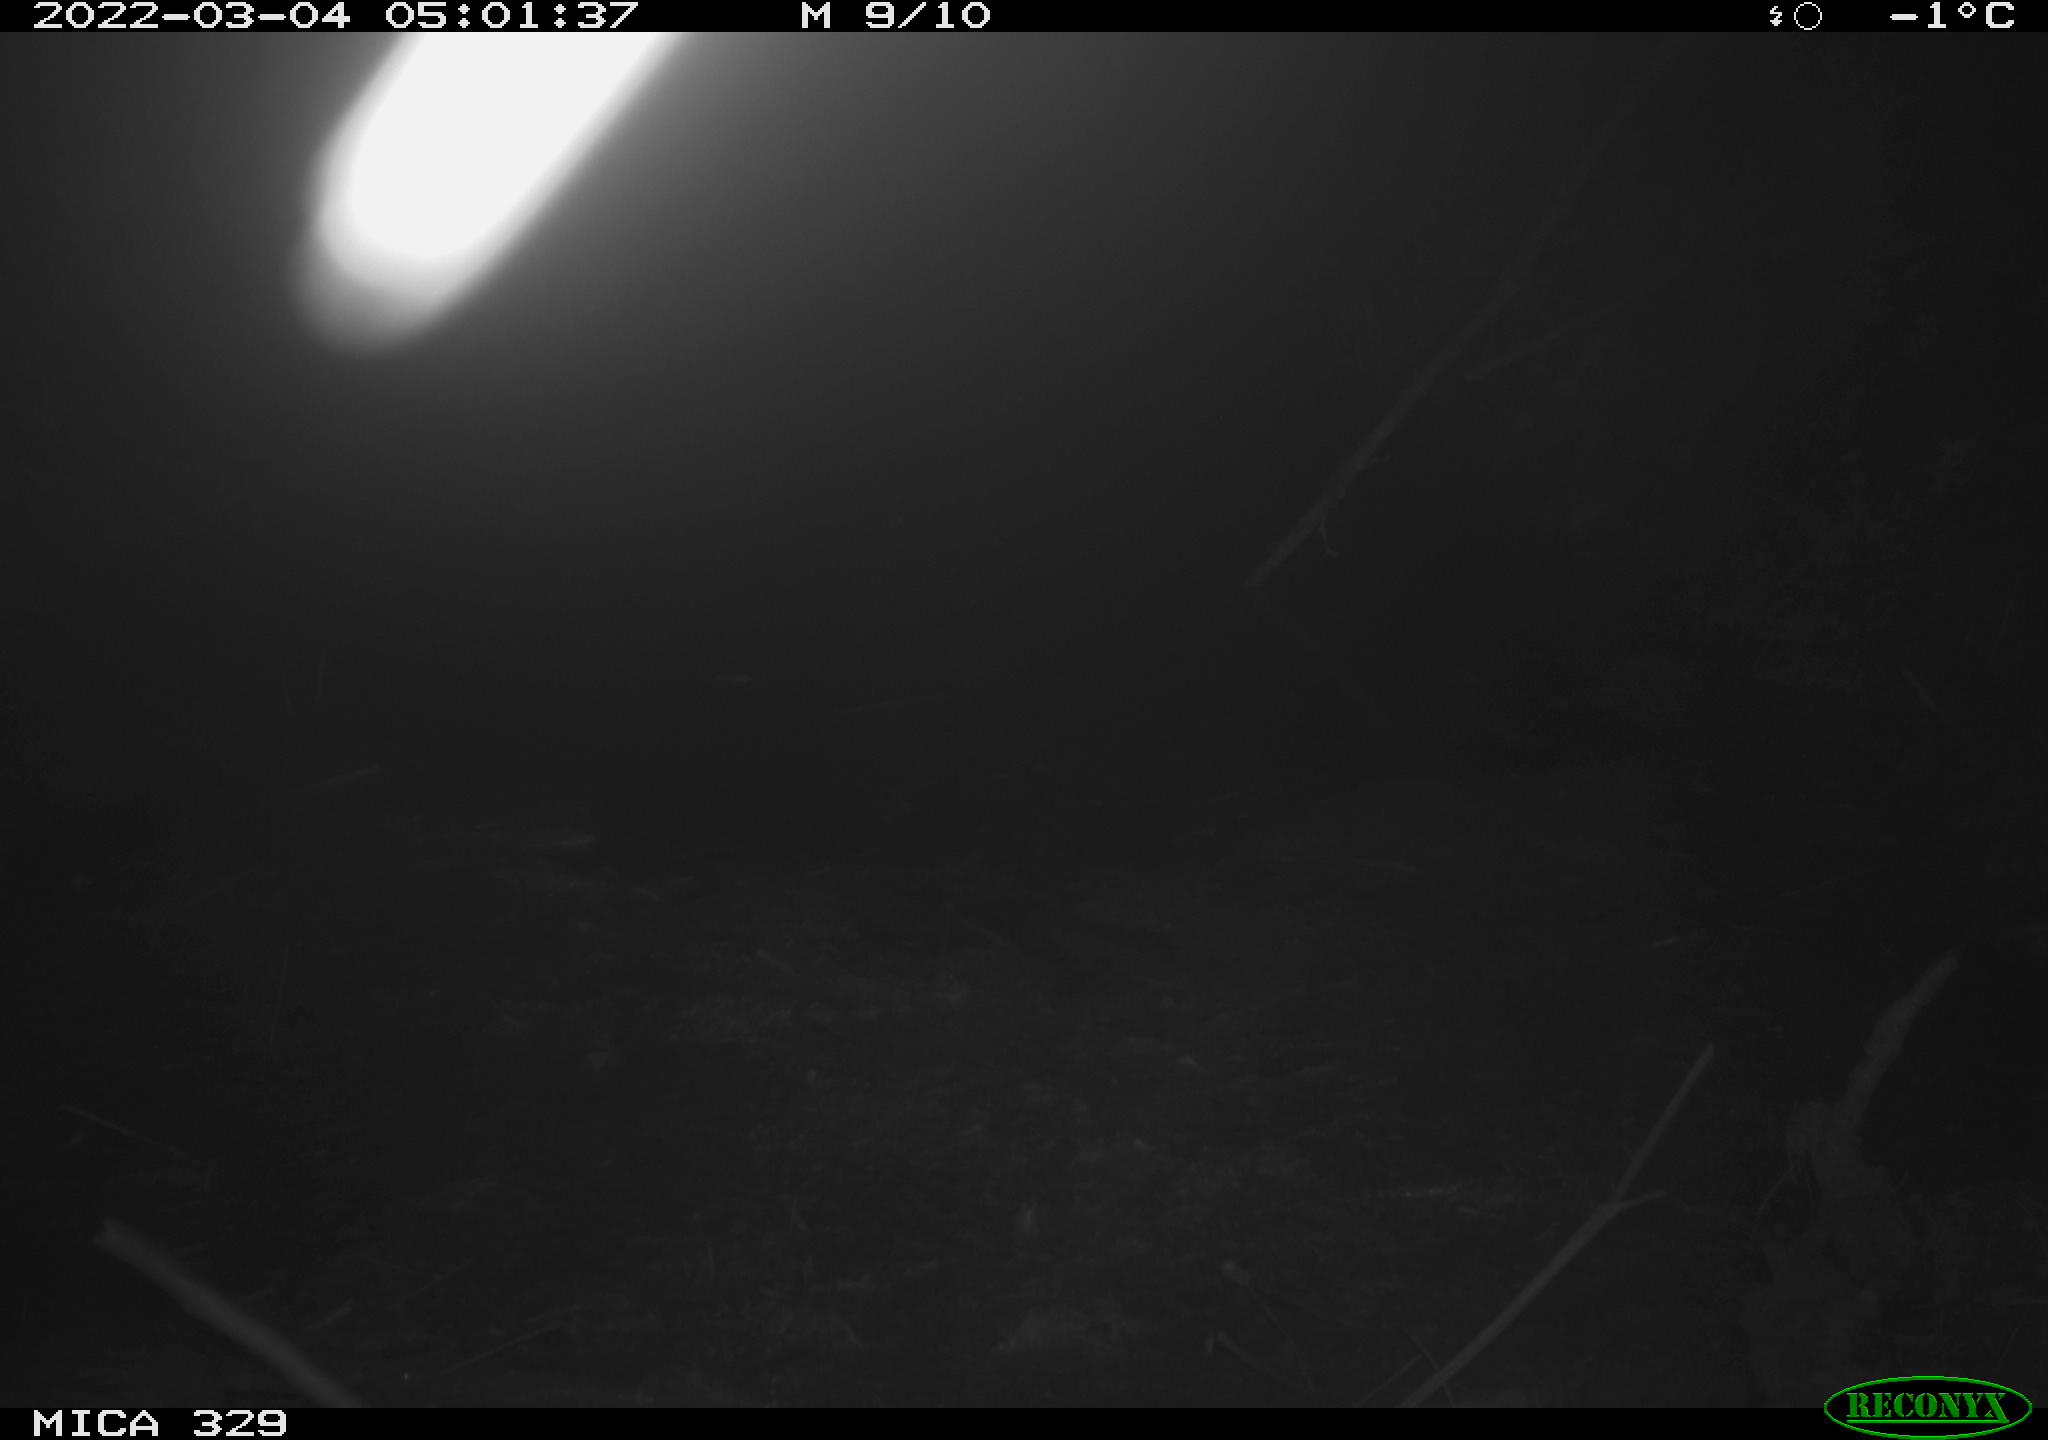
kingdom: Animalia
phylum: Chordata
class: Mammalia
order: Rodentia
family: Muridae
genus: Rattus
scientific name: Rattus norvegicus
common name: Brown rat
